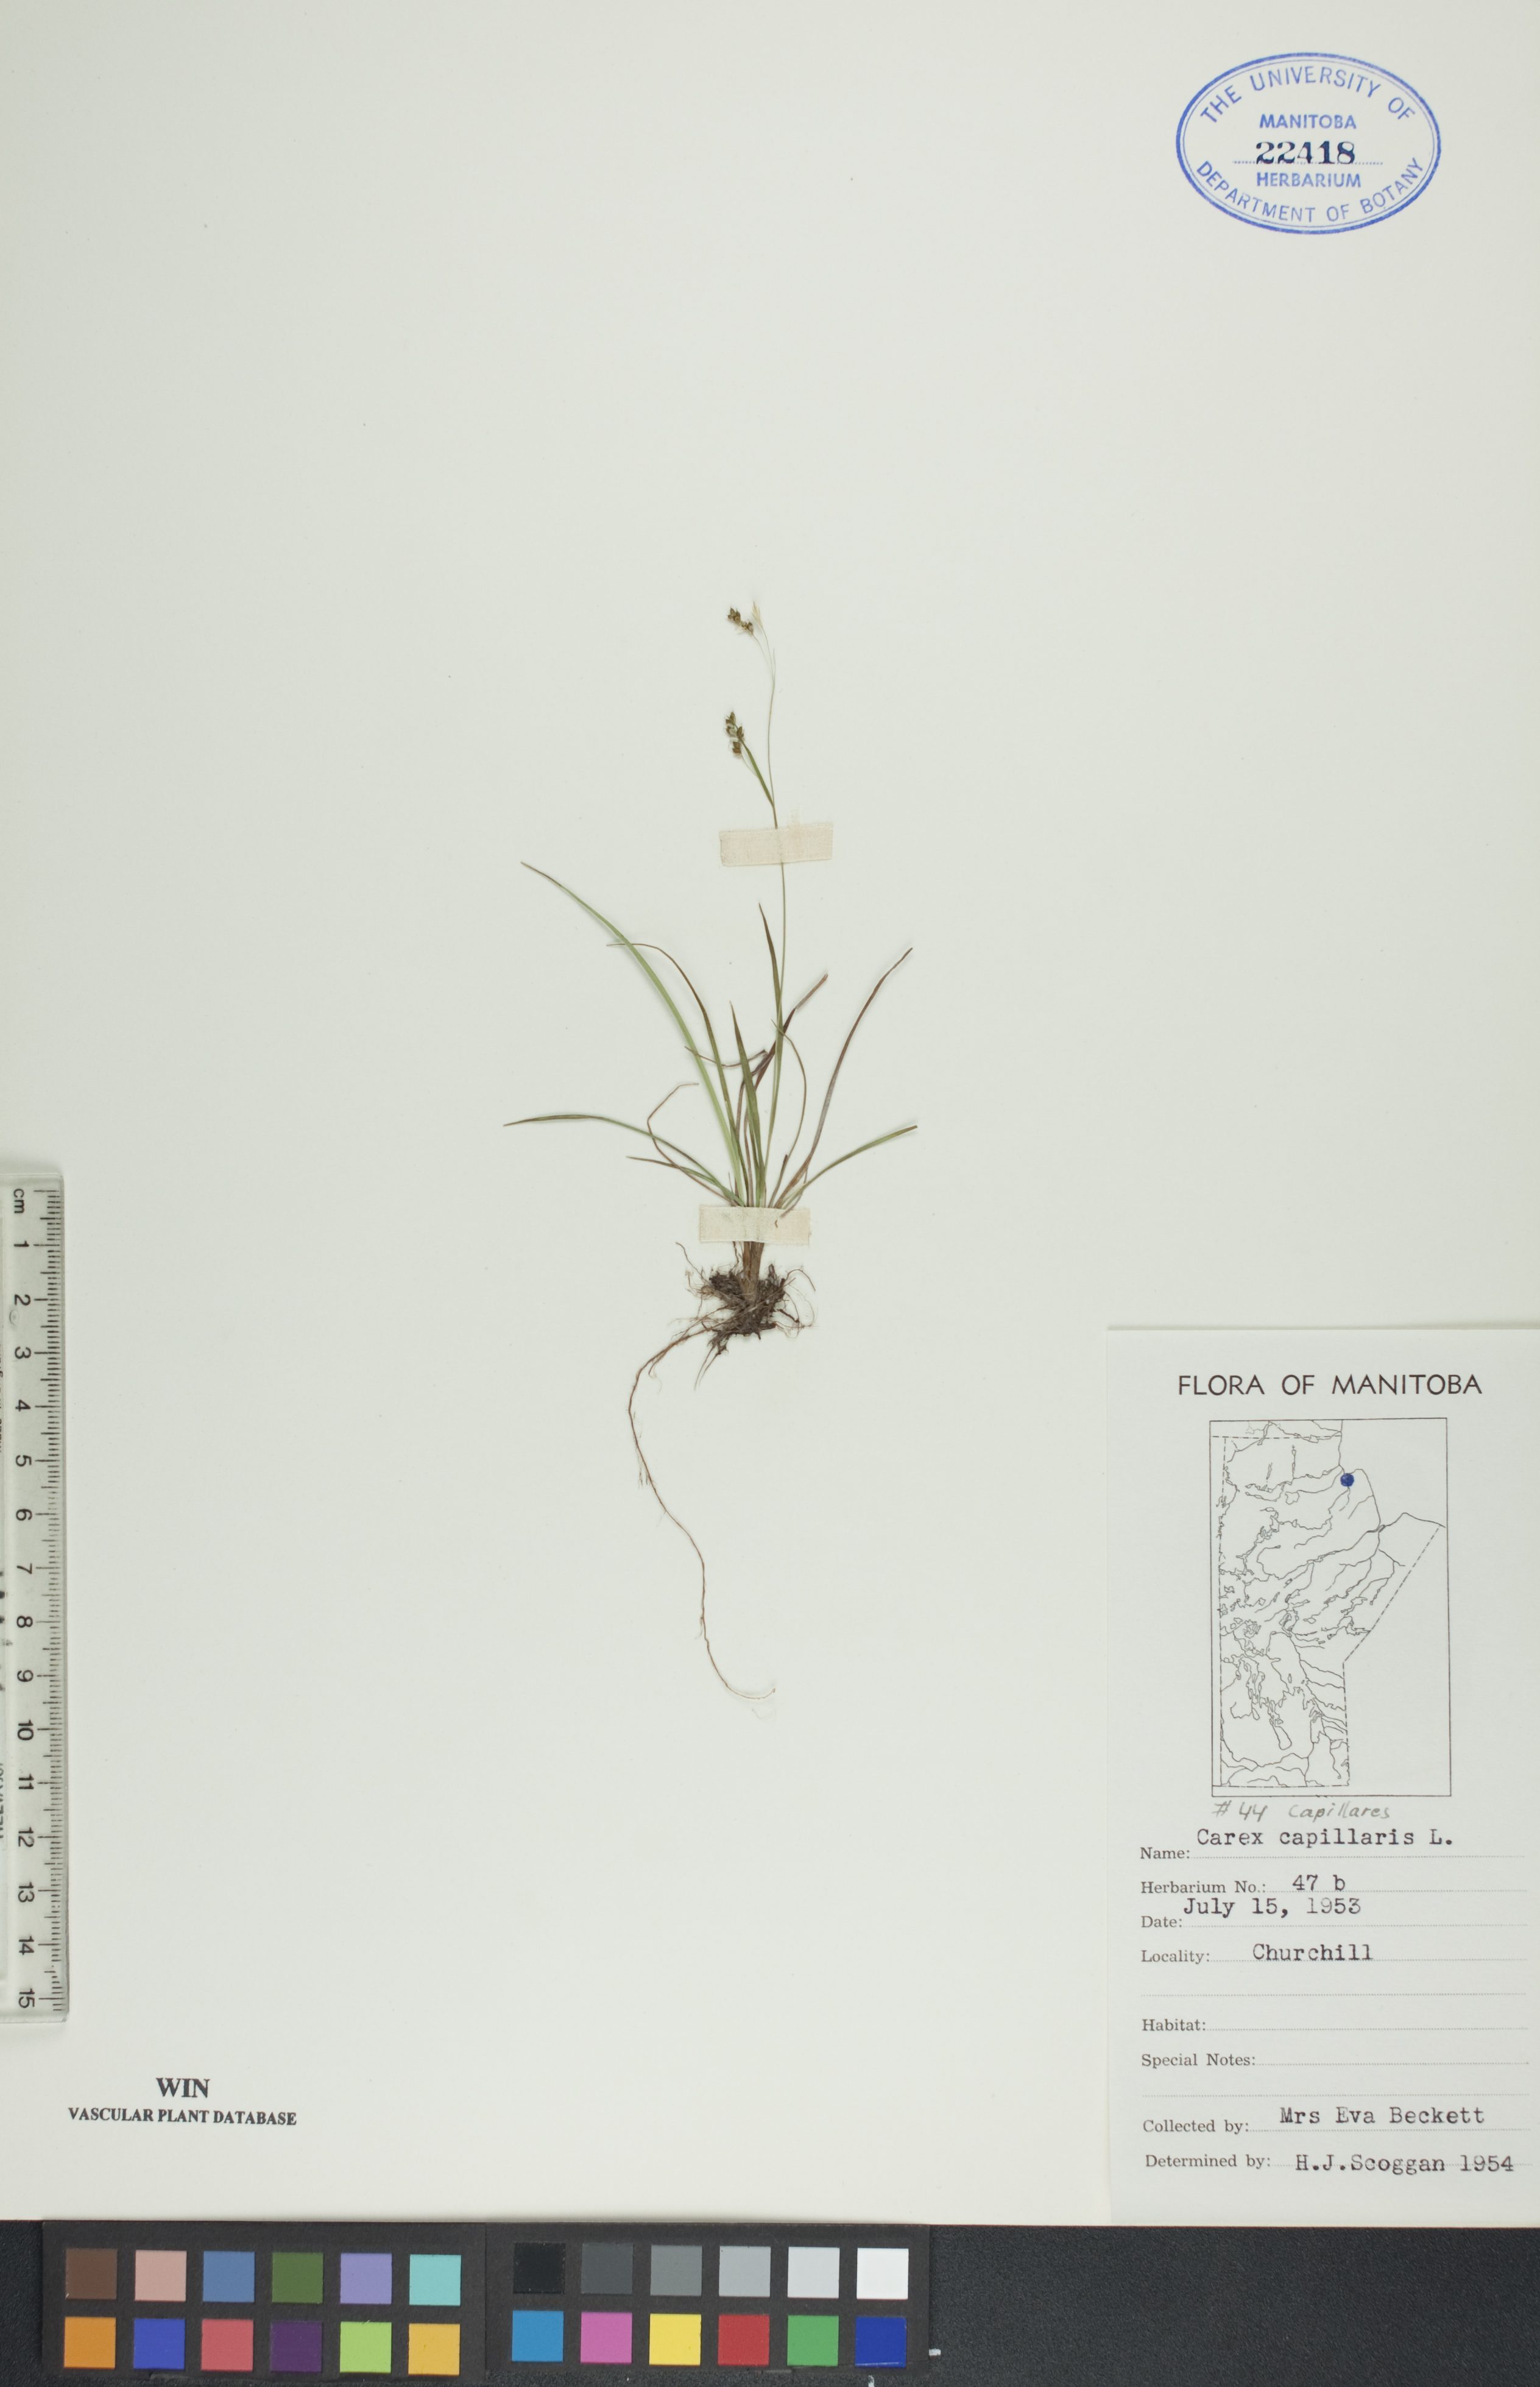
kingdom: Plantae
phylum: Tracheophyta
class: Liliopsida
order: Poales
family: Cyperaceae
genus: Carex
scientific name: Carex capillaris
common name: Hair sedge
